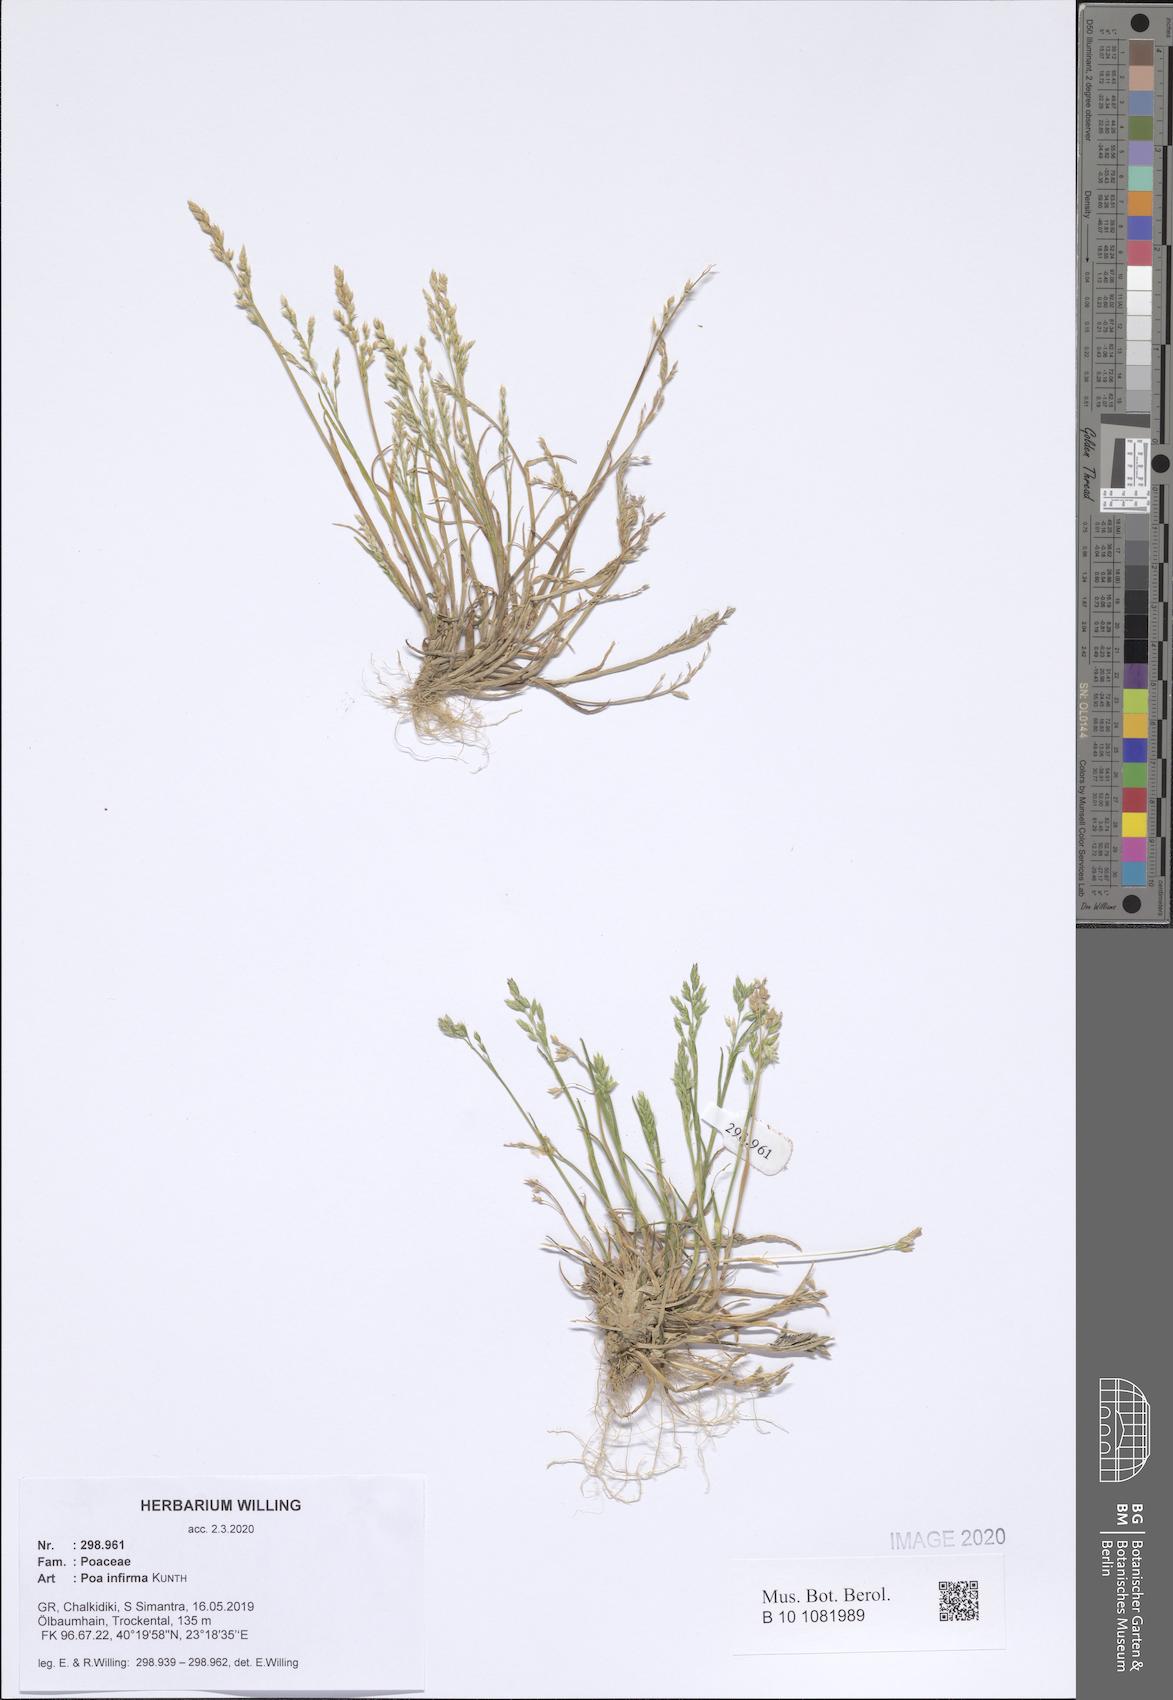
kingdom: Plantae
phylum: Tracheophyta
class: Liliopsida
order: Poales
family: Poaceae
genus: Poa
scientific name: Poa infirma
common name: Weak bluegrass
